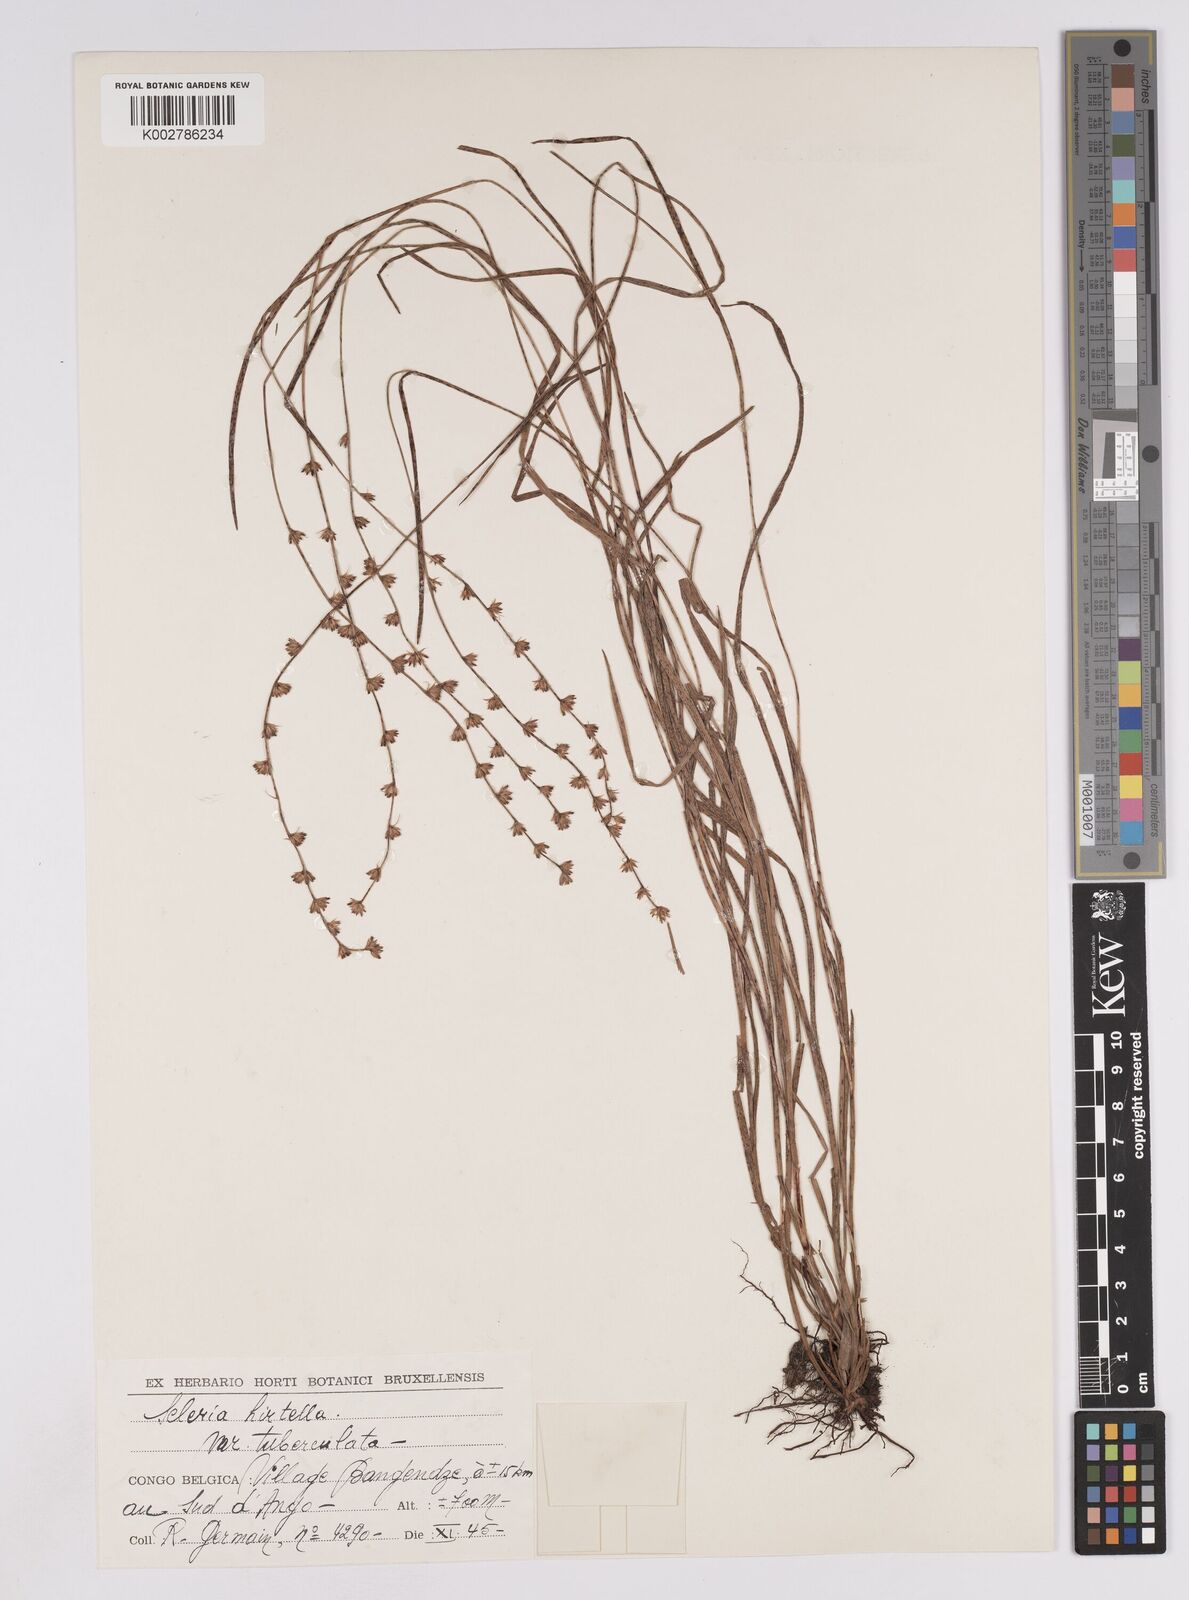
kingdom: Plantae
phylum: Tracheophyta
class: Liliopsida
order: Poales
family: Cyperaceae
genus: Scleria
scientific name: Scleria hirtella
